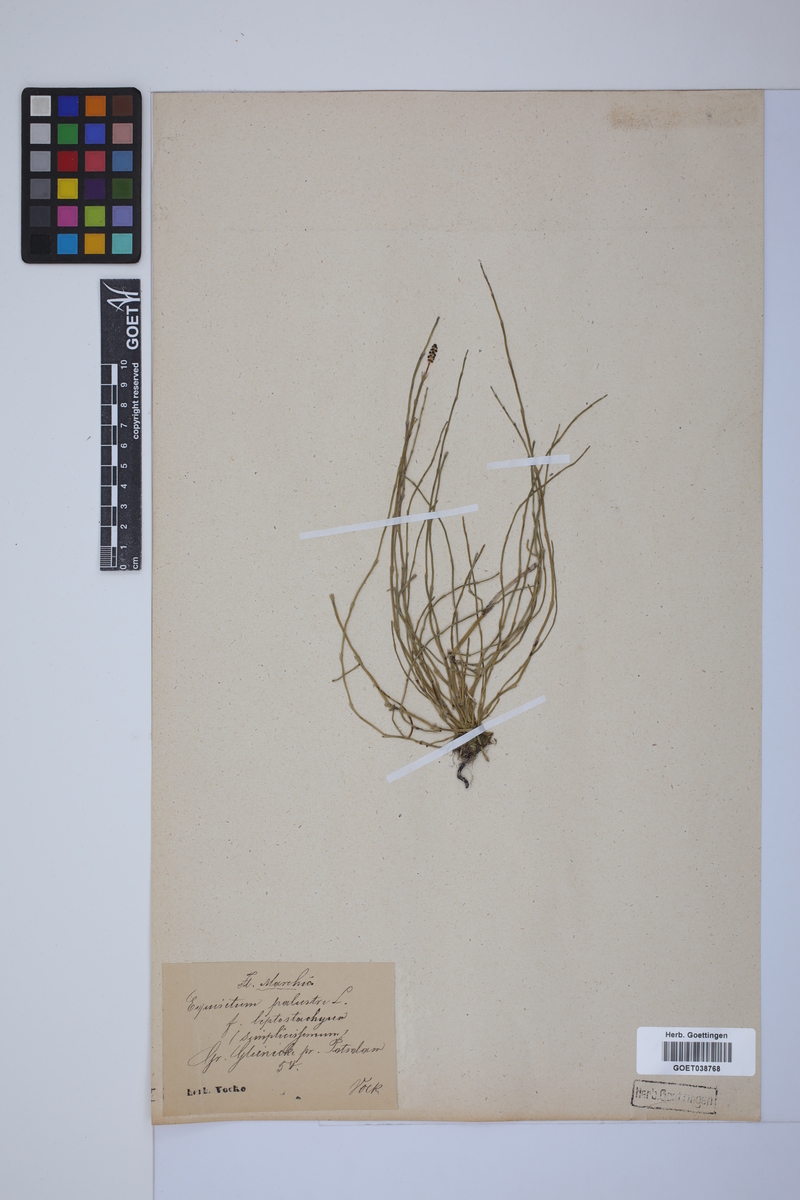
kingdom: Plantae
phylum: Tracheophyta
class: Polypodiopsida
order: Equisetales
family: Equisetaceae
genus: Equisetum
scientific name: Equisetum palustre
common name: Marsh horsetail
